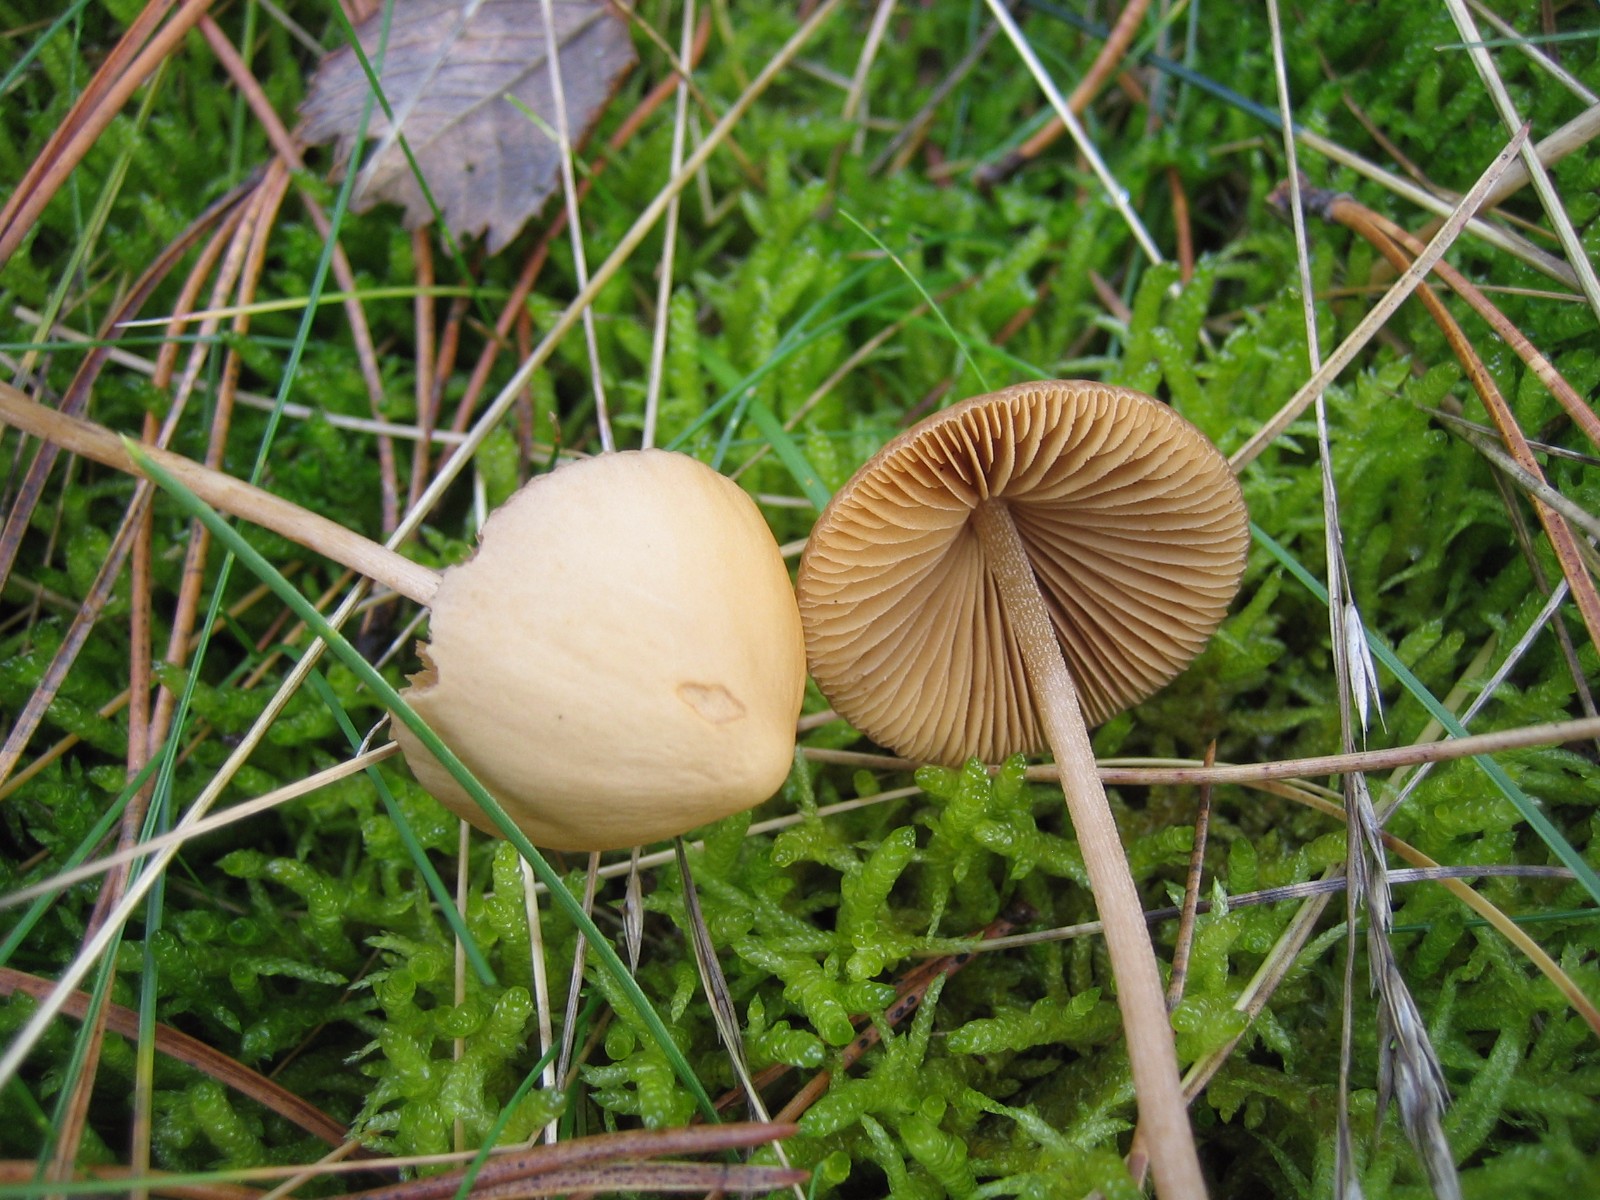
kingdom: Fungi
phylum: Basidiomycota
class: Agaricomycetes
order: Agaricales
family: Bolbitiaceae
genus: Conocybe
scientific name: Conocybe
